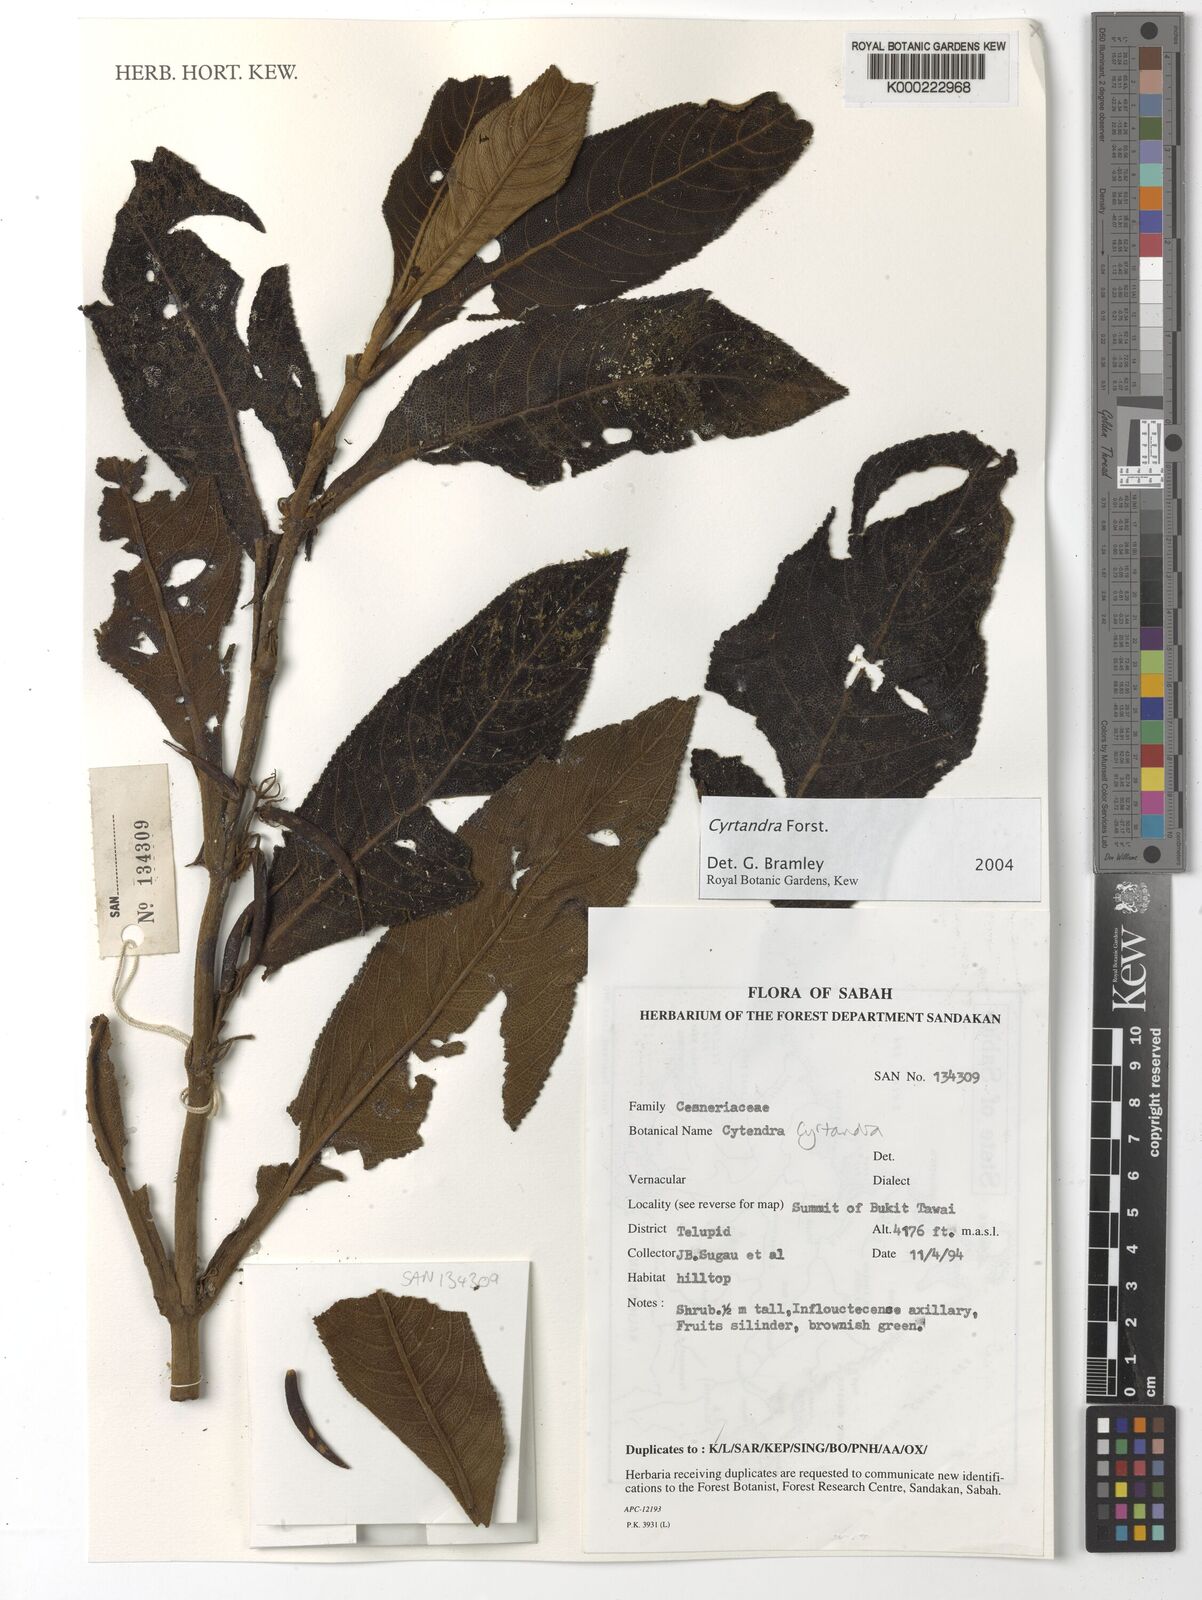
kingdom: Plantae
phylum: Tracheophyta
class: Magnoliopsida
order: Lamiales
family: Gesneriaceae
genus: Cyrtandra
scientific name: Cyrtandra
